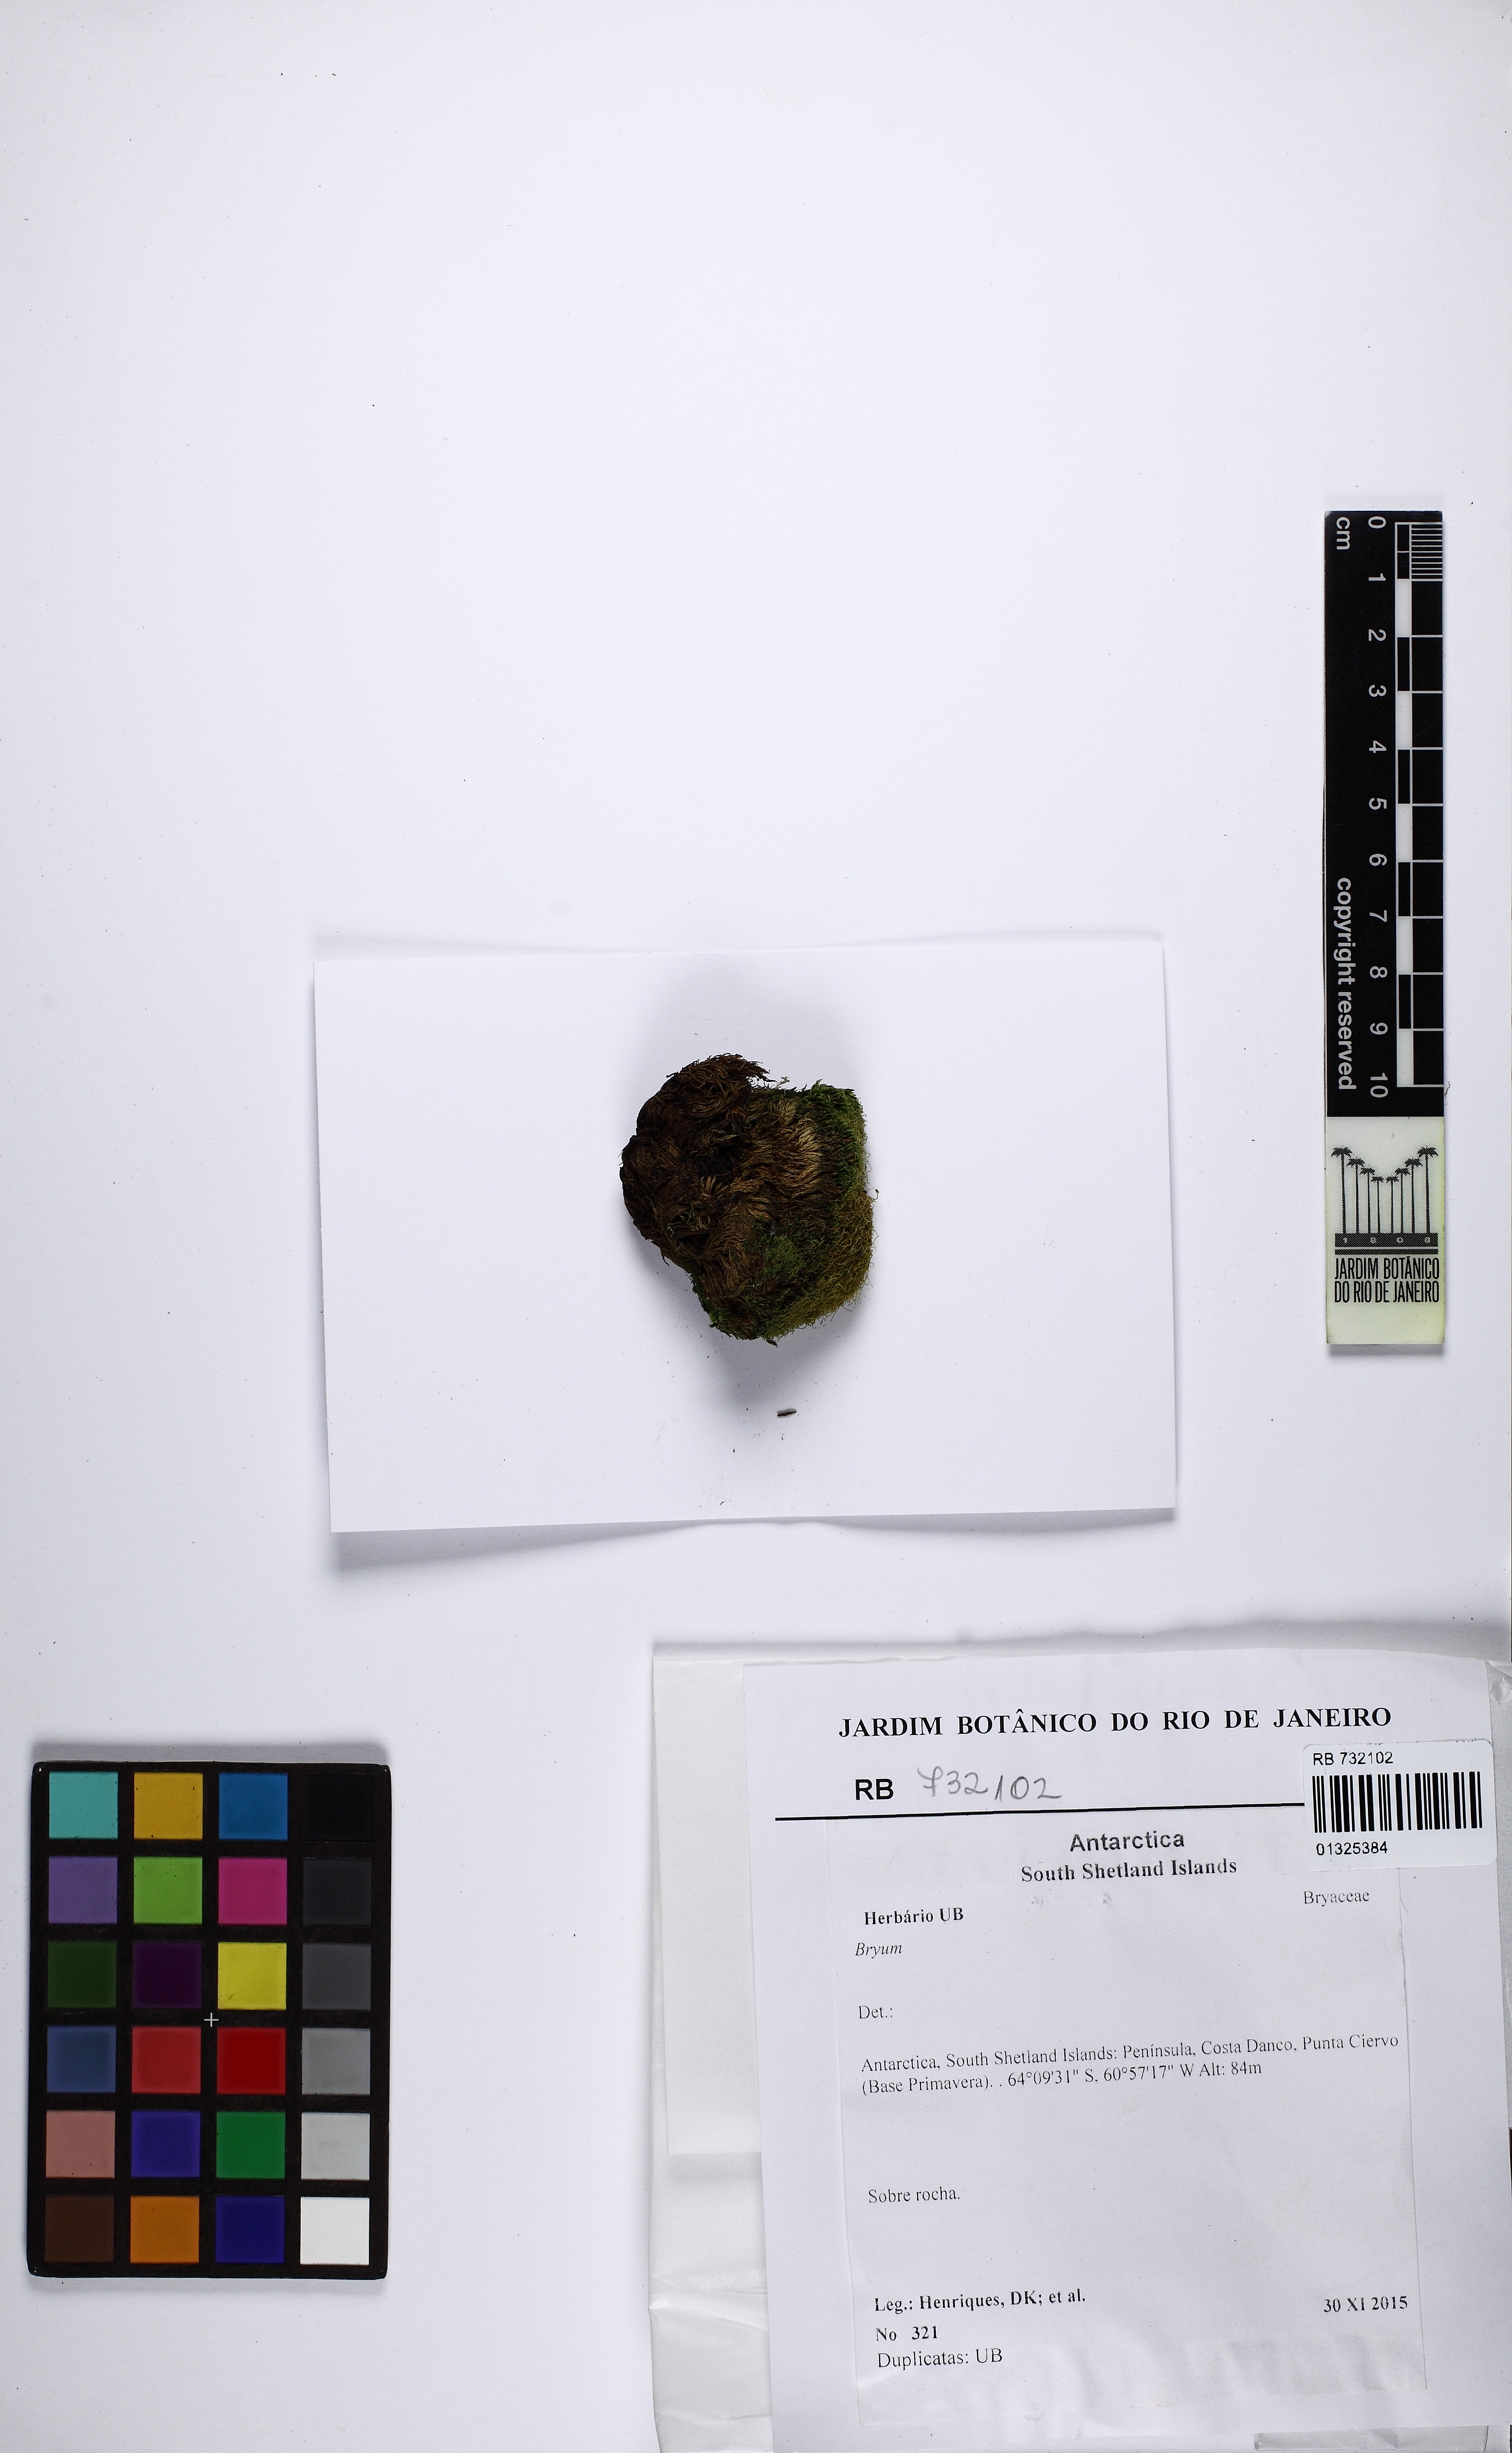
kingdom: Plantae
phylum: Bryophyta
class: Bryopsida
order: Bryales
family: Bryaceae
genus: Bryum
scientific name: Bryum
